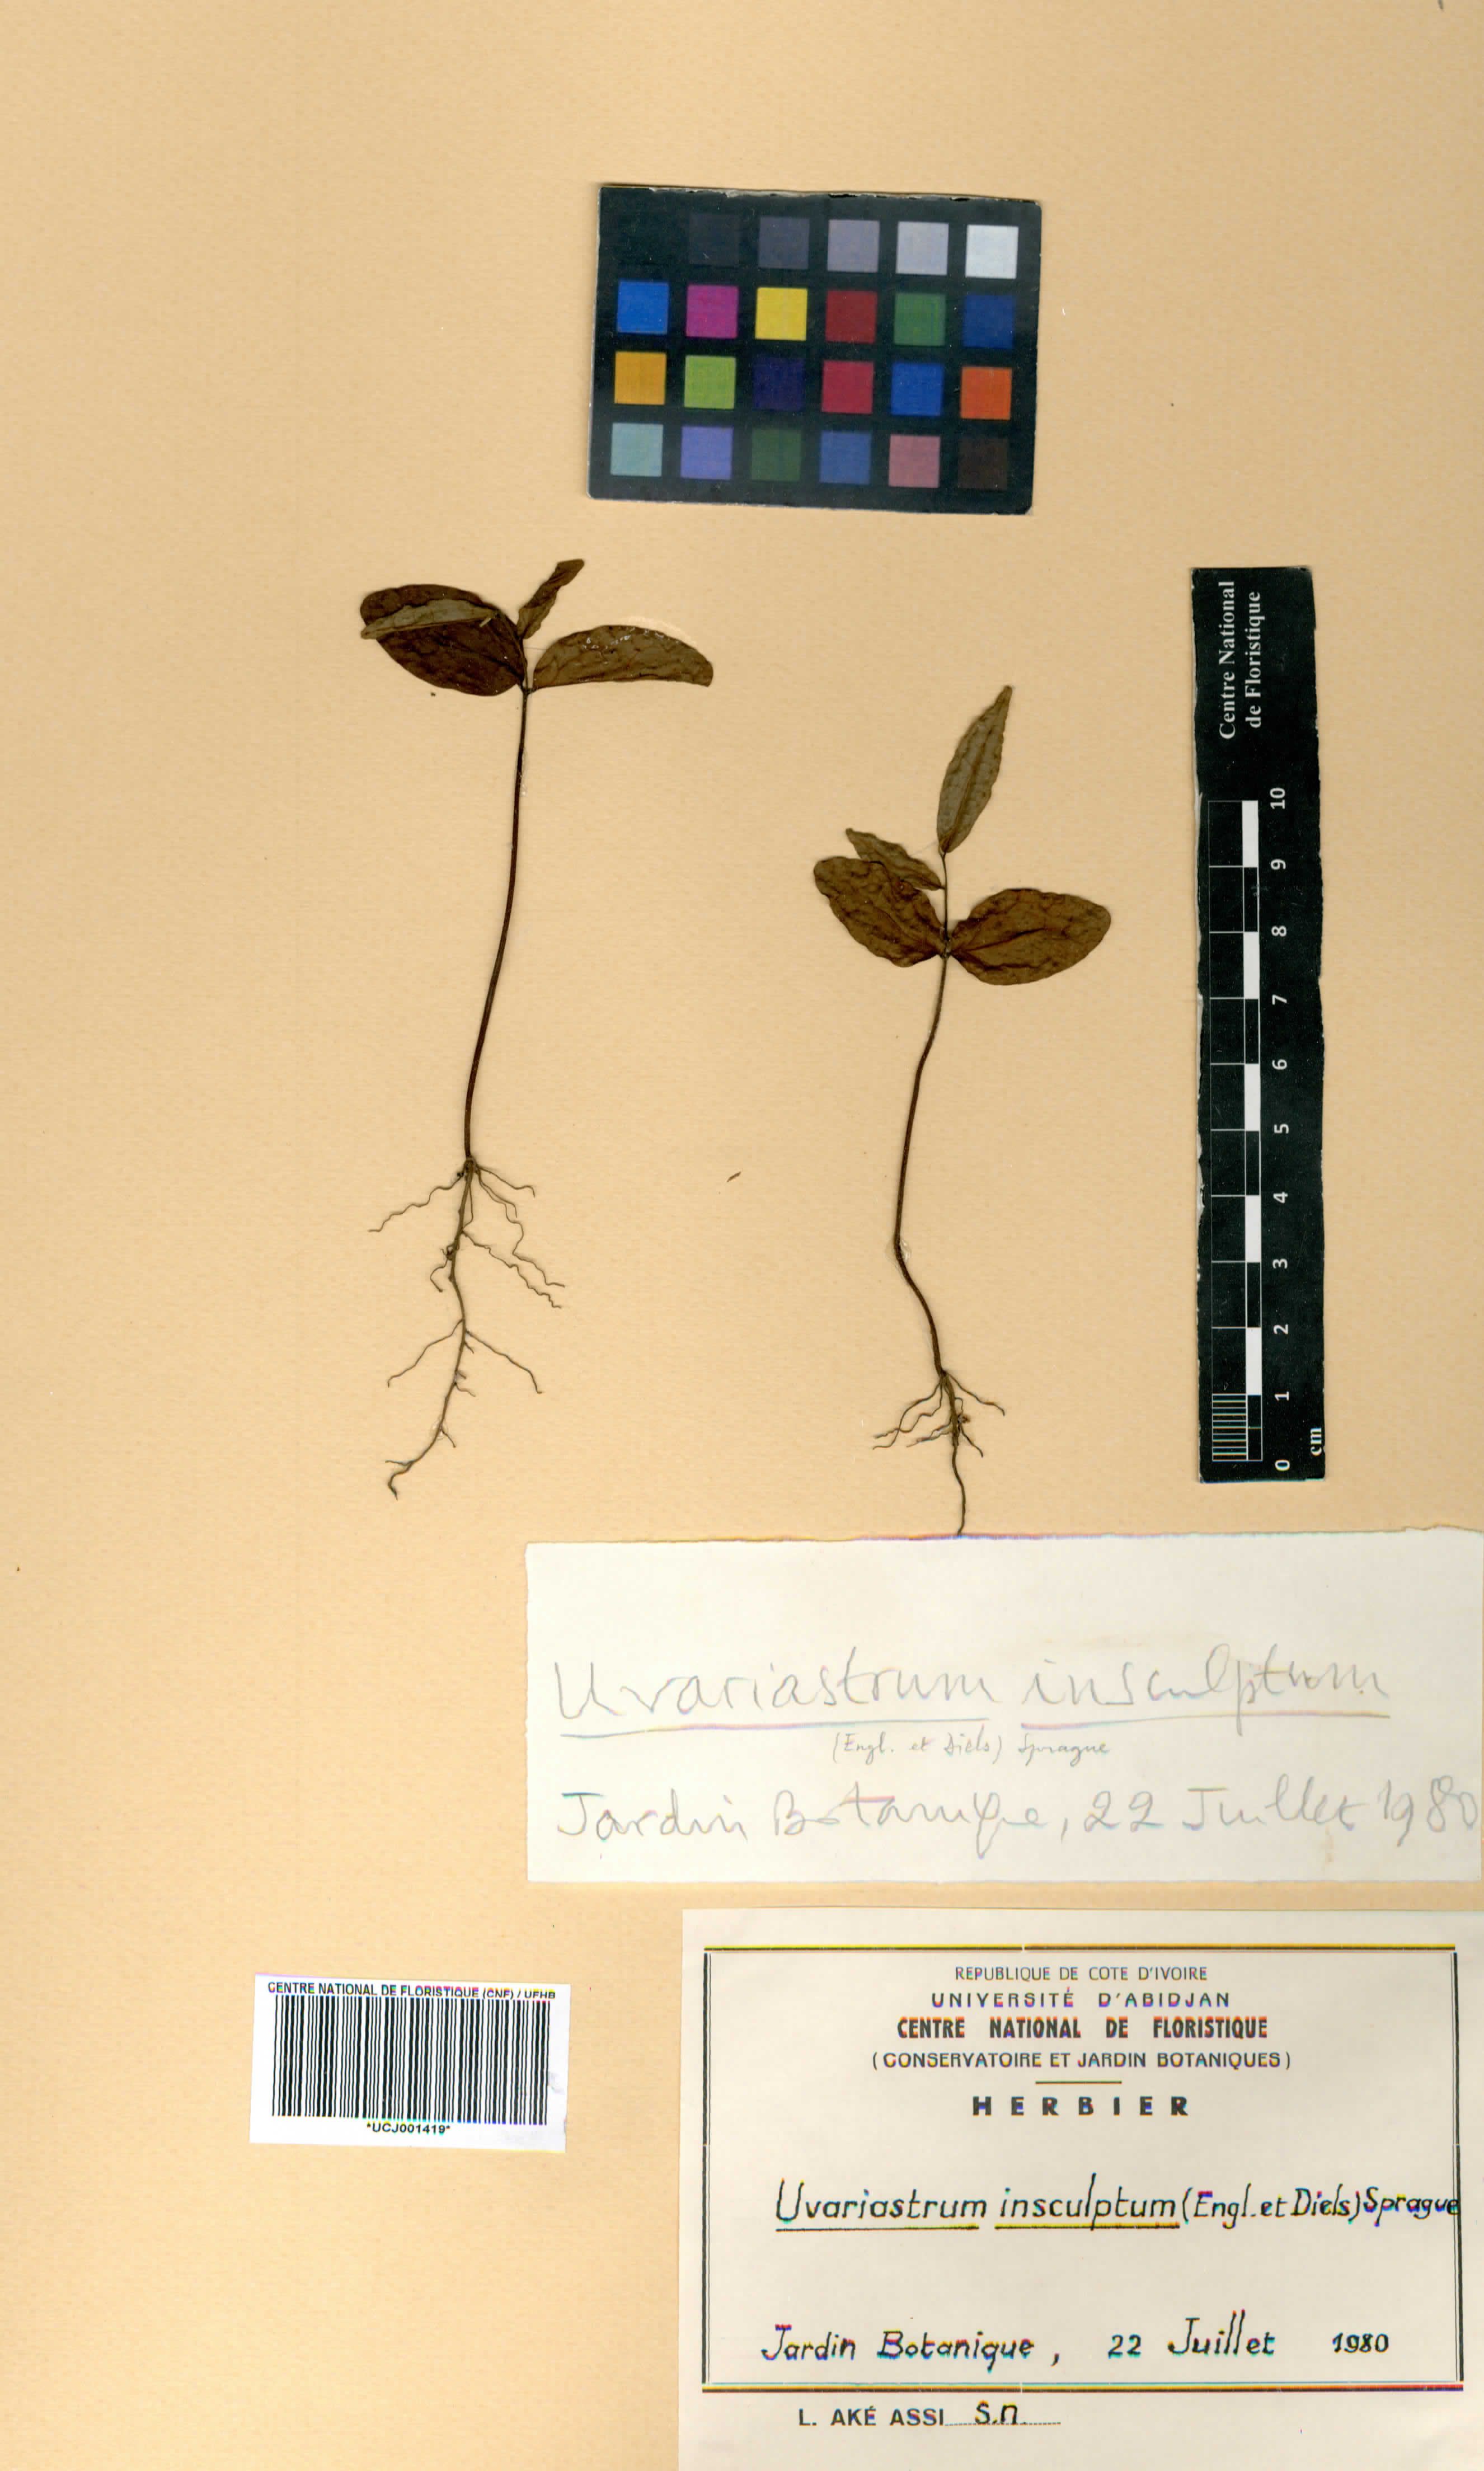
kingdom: Plantae
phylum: Tracheophyta
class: Magnoliopsida
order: Magnoliales
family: Annonaceae
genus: Uvariastrum
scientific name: Uvariastrum pierreanum
